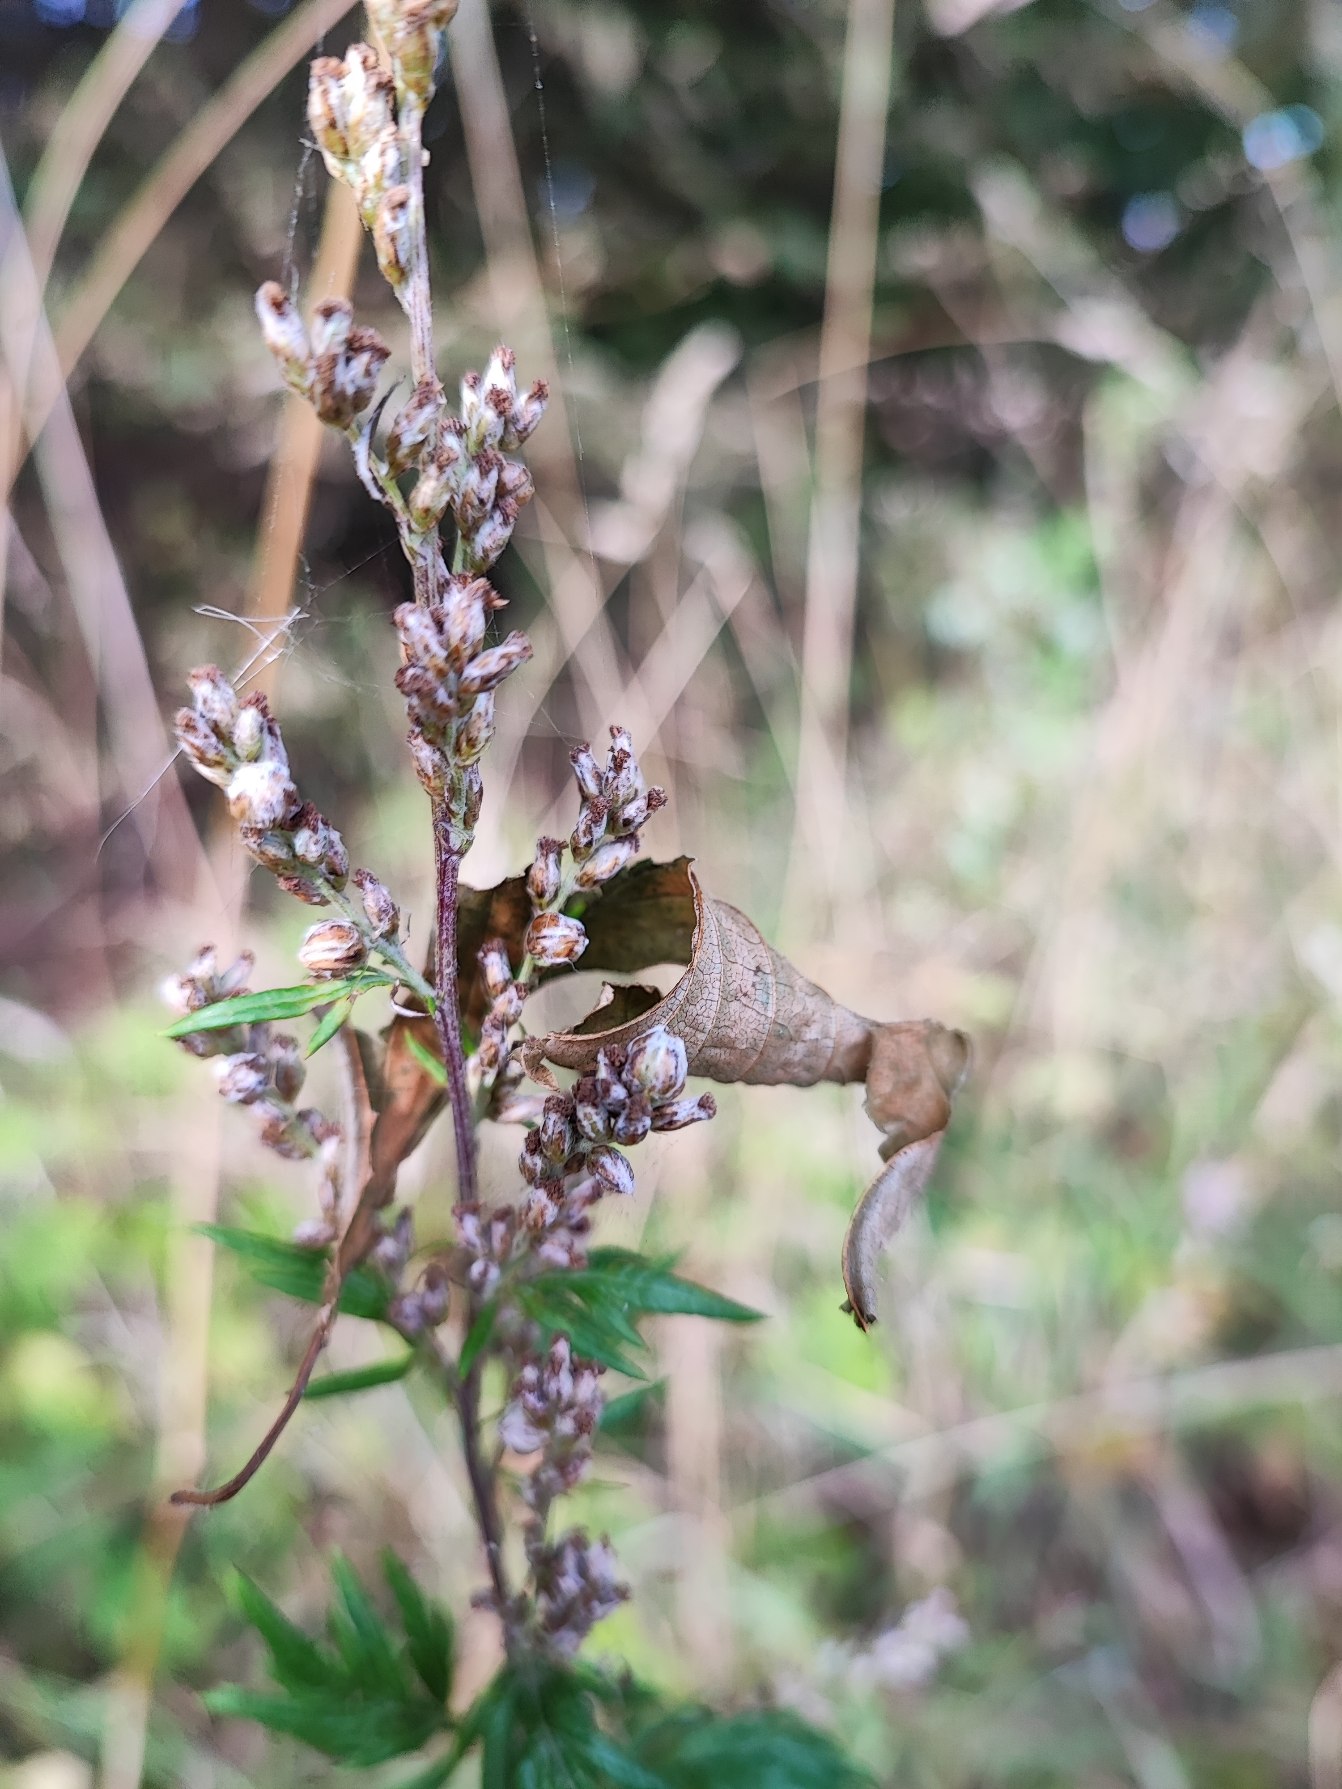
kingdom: Animalia
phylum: Arthropoda
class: Insecta
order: Diptera
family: Cecidomyiidae
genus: Ametrodiplosis
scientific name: Ametrodiplosis rudimentalis
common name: Bynkekurvgalmyg
